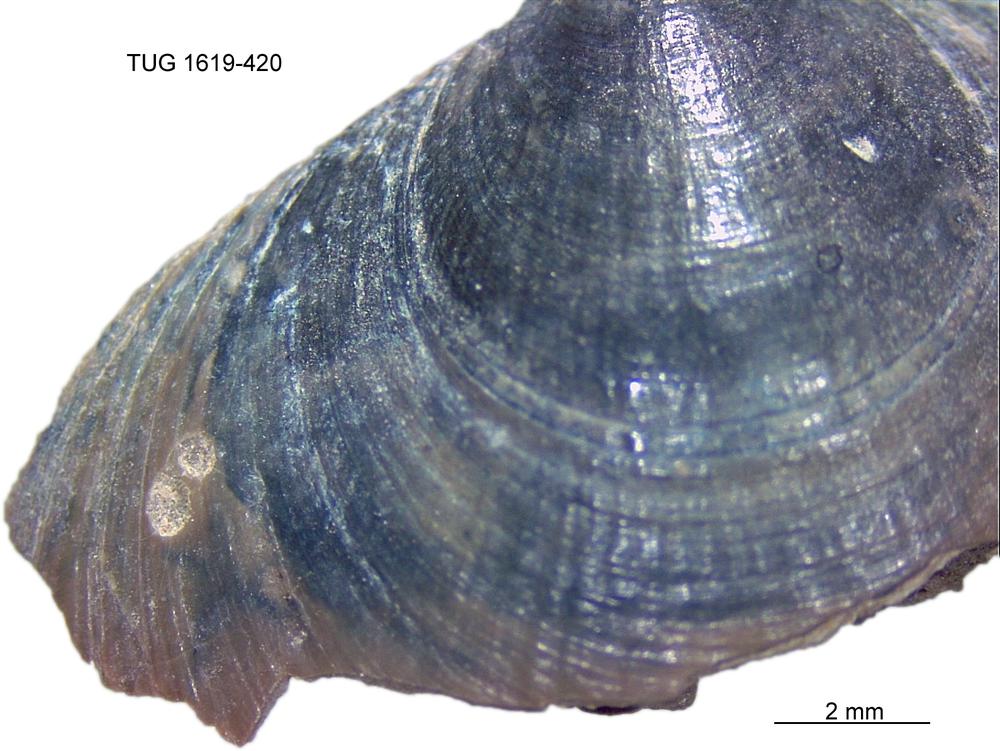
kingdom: Animalia
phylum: Porifera
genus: Ungula
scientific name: Ungula
